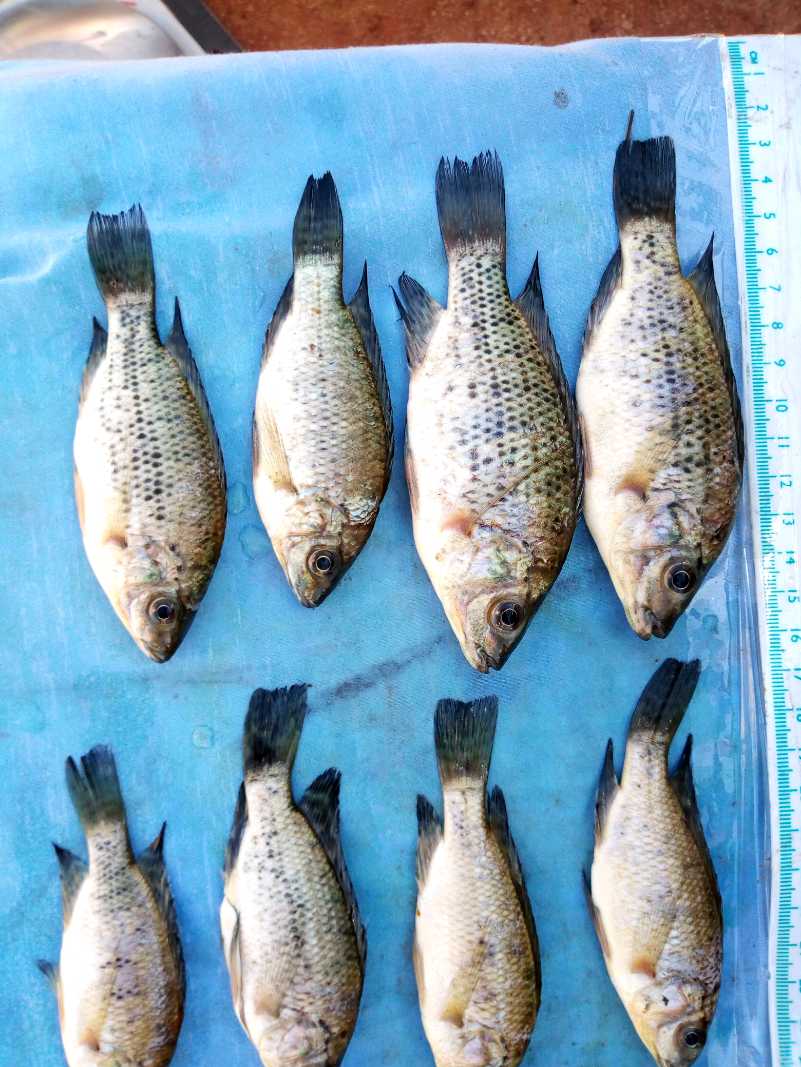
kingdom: Animalia
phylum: Chordata
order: Perciformes
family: Cichlidae
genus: Oreochromis
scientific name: Oreochromis jipe
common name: Jipe tilapia
